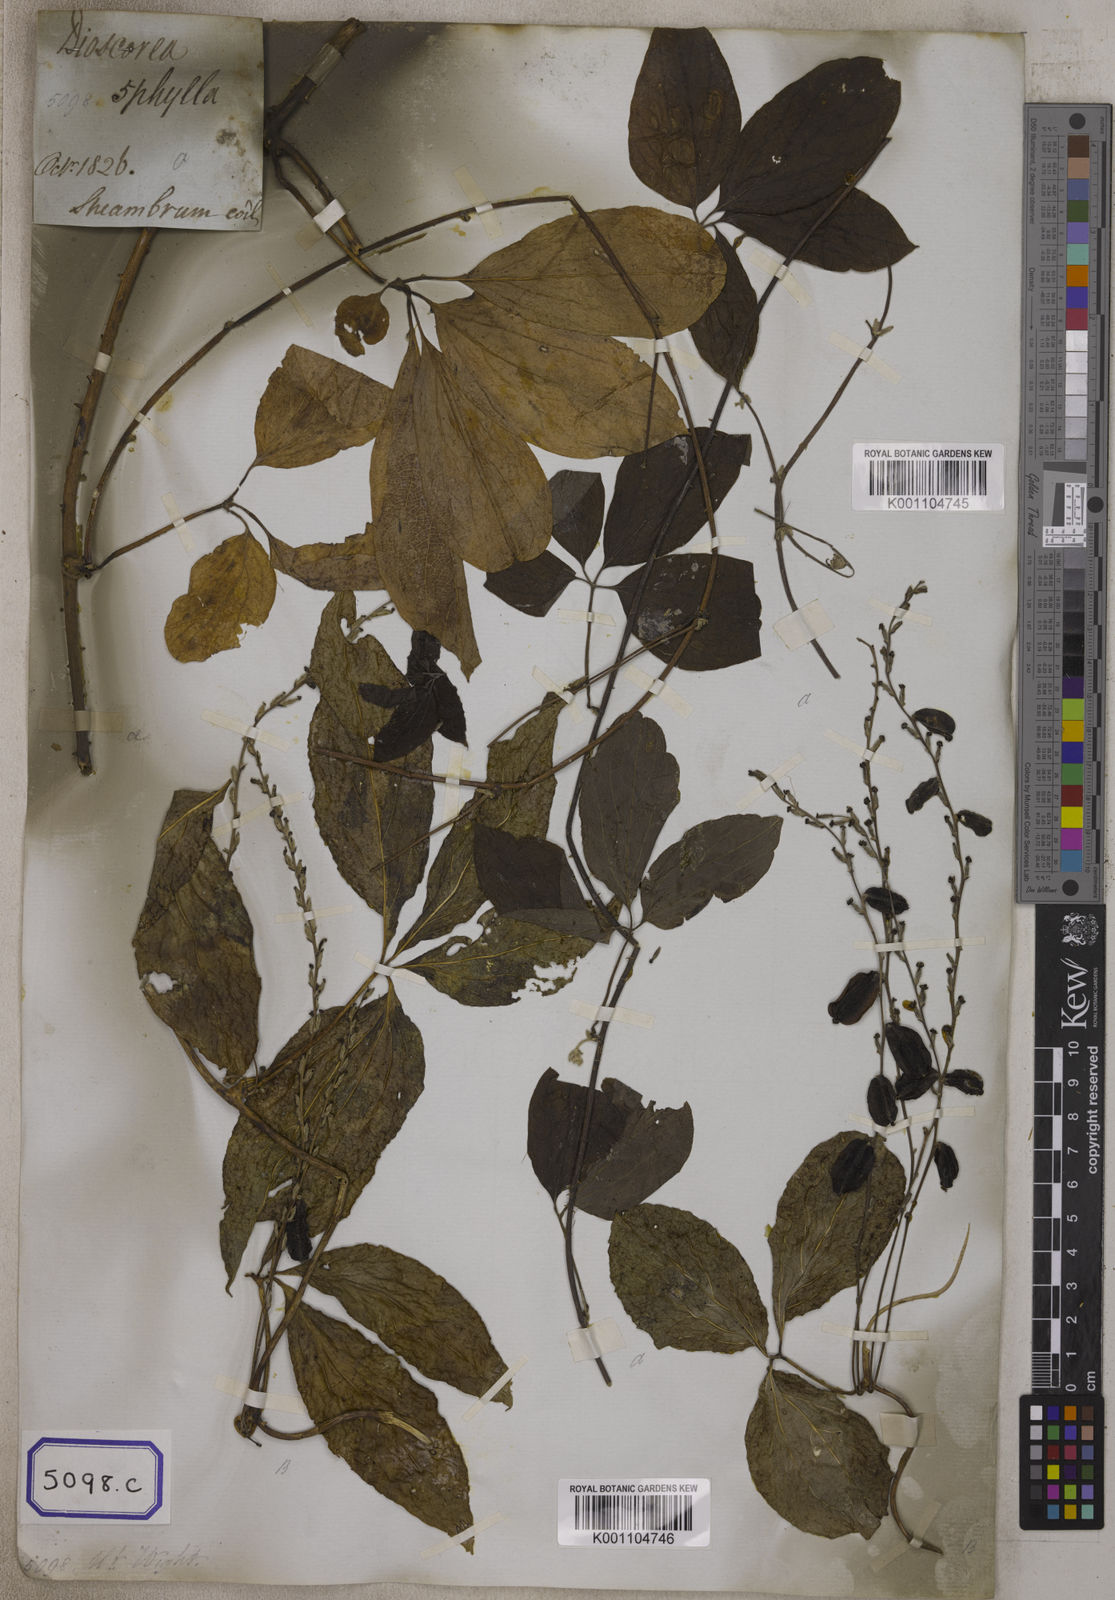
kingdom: Plantae
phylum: Tracheophyta
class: Liliopsida
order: Dioscoreales
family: Dioscoreaceae
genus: Dioscorea
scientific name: Dioscorea
